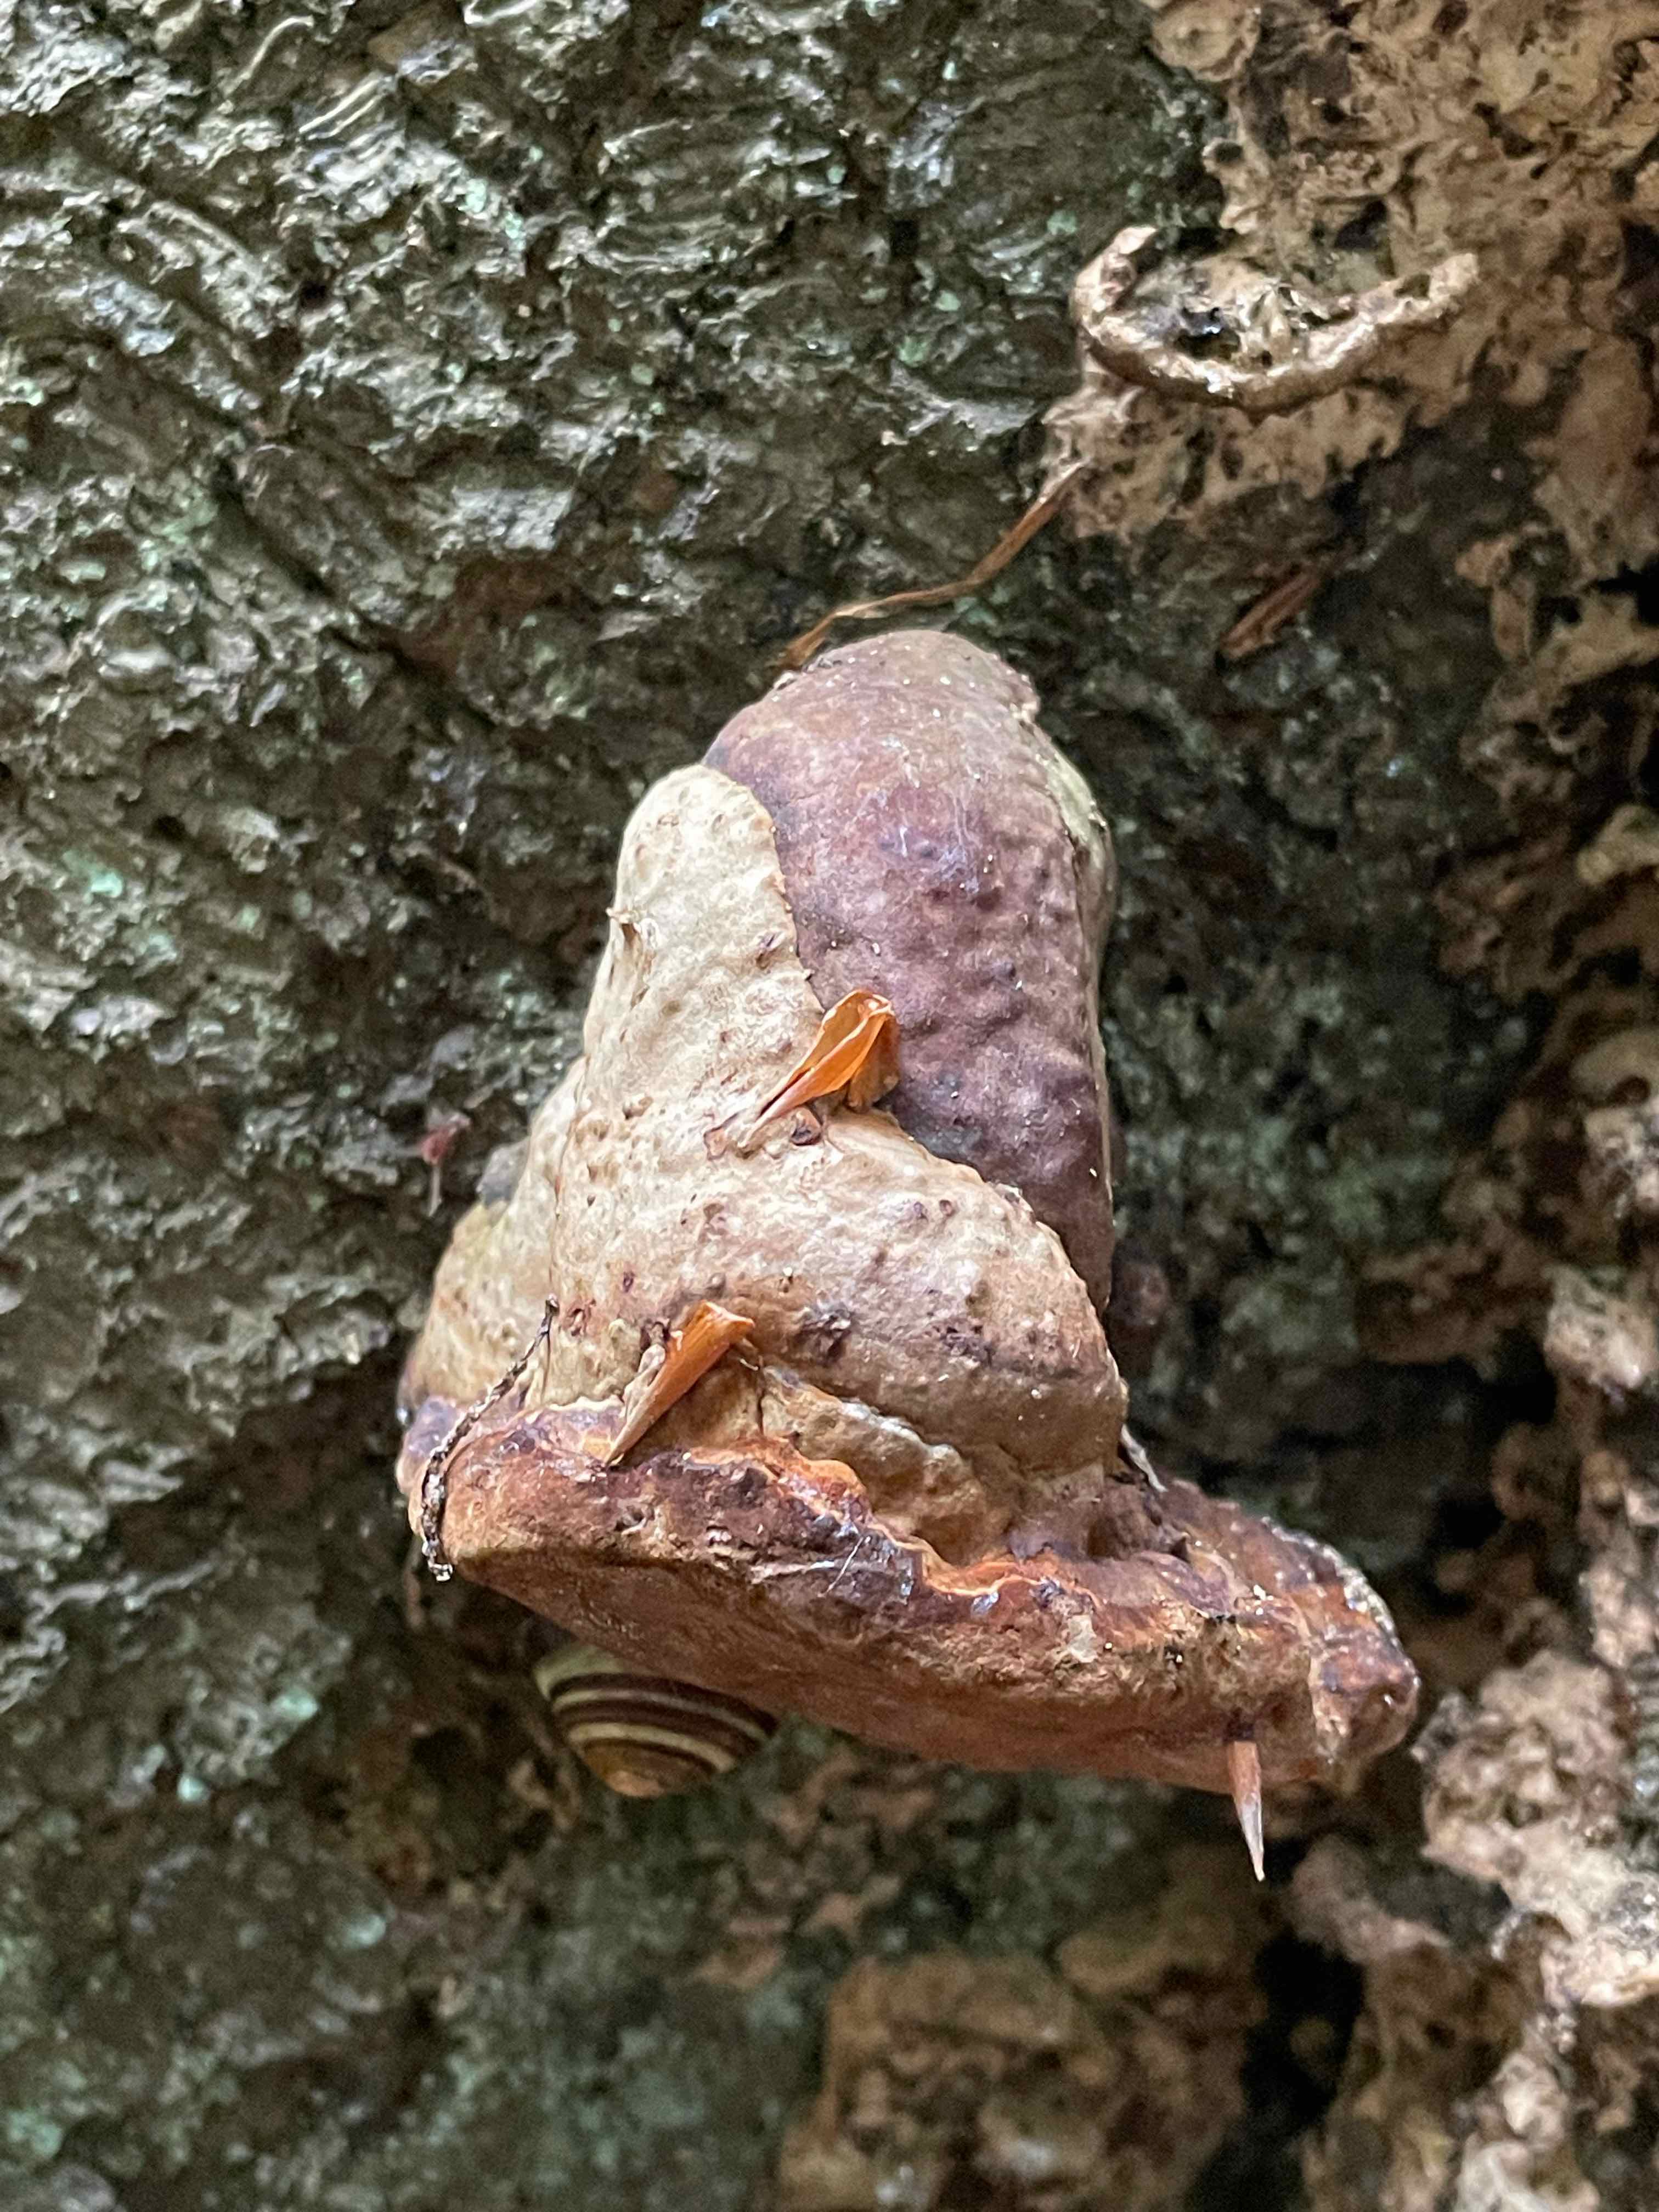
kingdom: Fungi
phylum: Basidiomycota
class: Agaricomycetes
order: Polyporales
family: Polyporaceae
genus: Fomes
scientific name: Fomes fomentarius
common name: tøndersvamp
